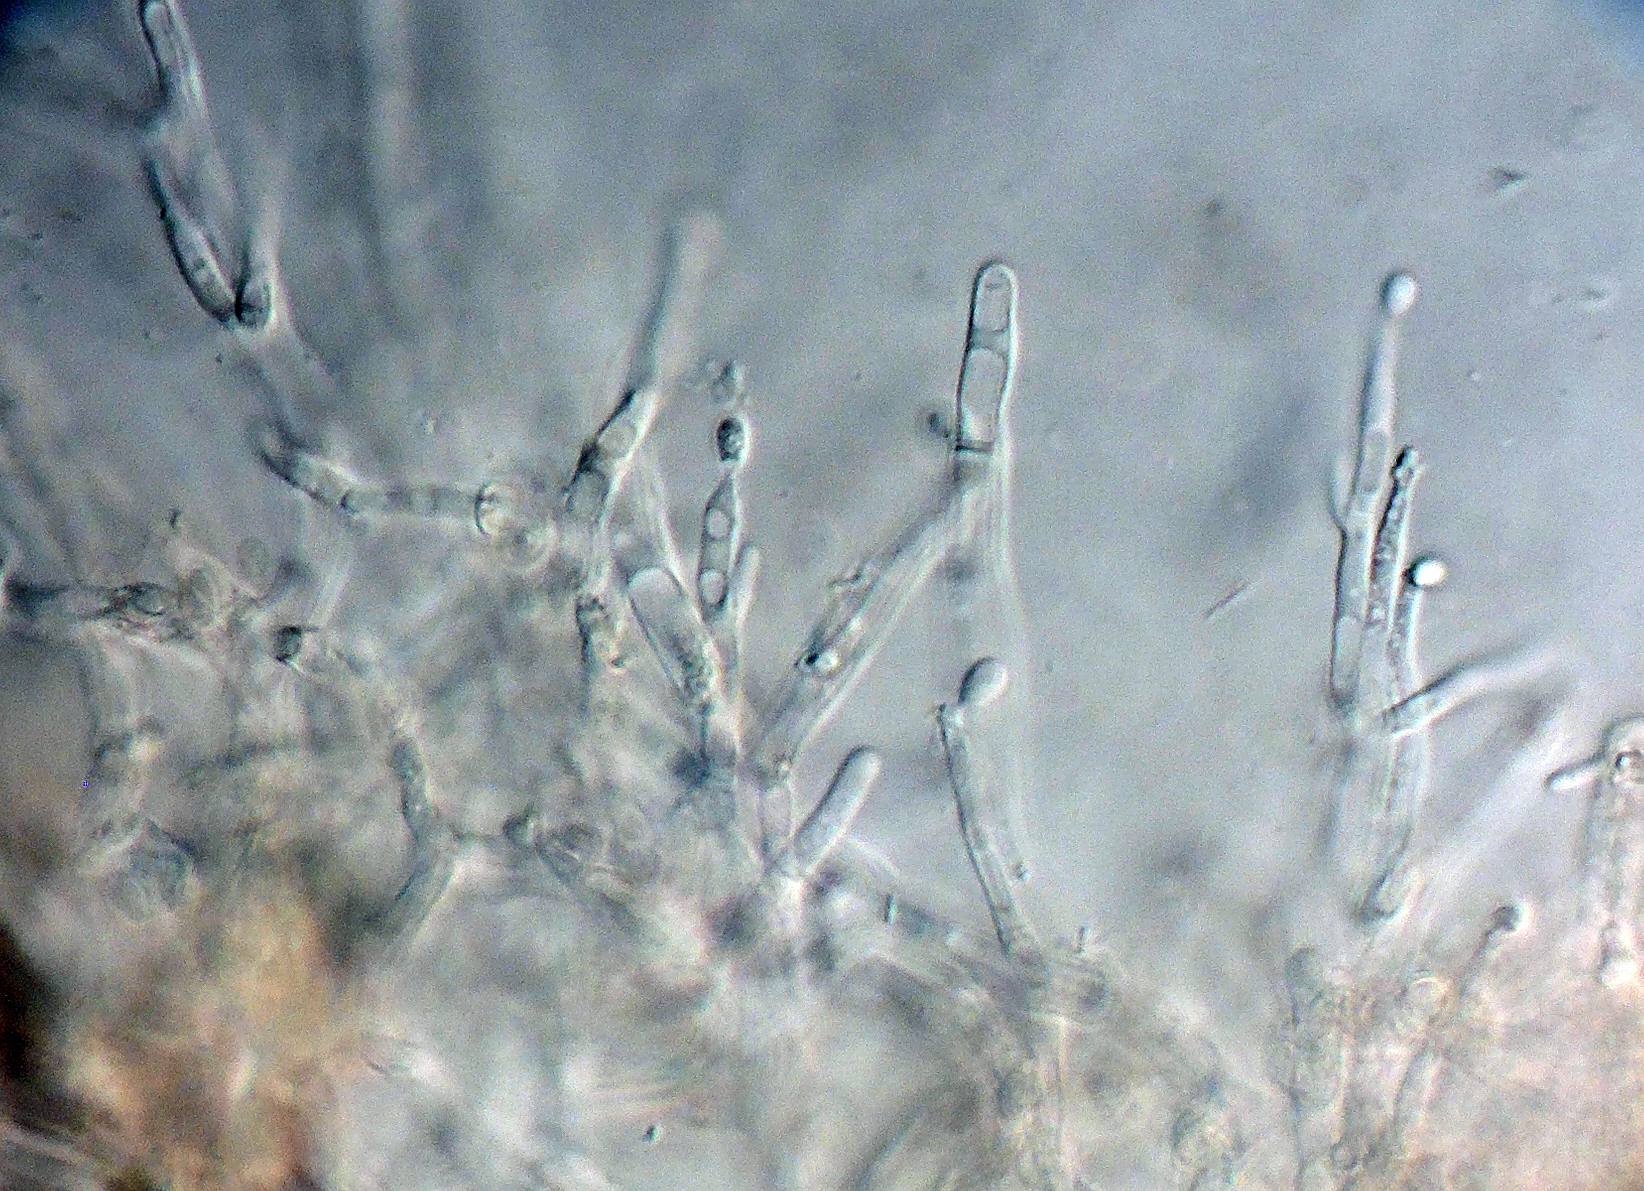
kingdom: Fungi
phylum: Ascomycota
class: Sordariomycetes
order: Hypocreales
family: Cordycipitaceae
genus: Isaria
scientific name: Isaria
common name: snyltekølle
